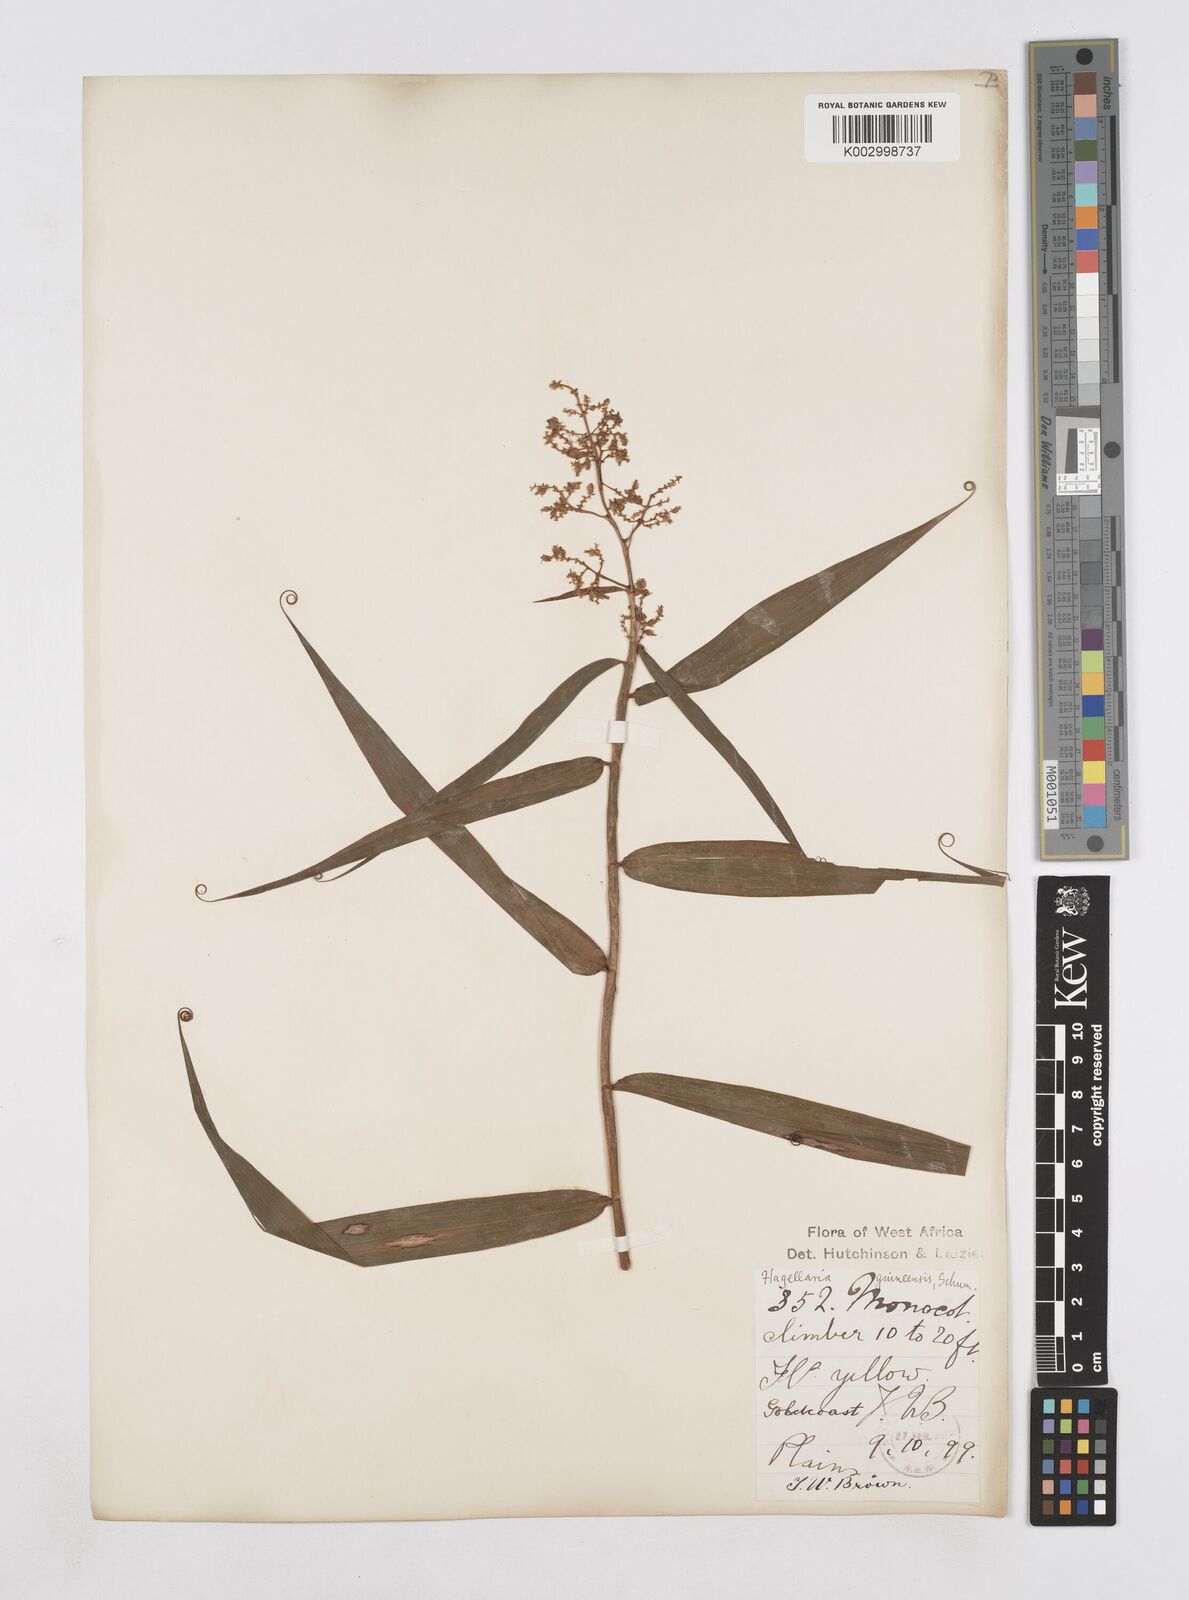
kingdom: Plantae
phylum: Tracheophyta
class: Liliopsida
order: Poales
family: Flagellariaceae
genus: Flagellaria
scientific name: Flagellaria guineensis
